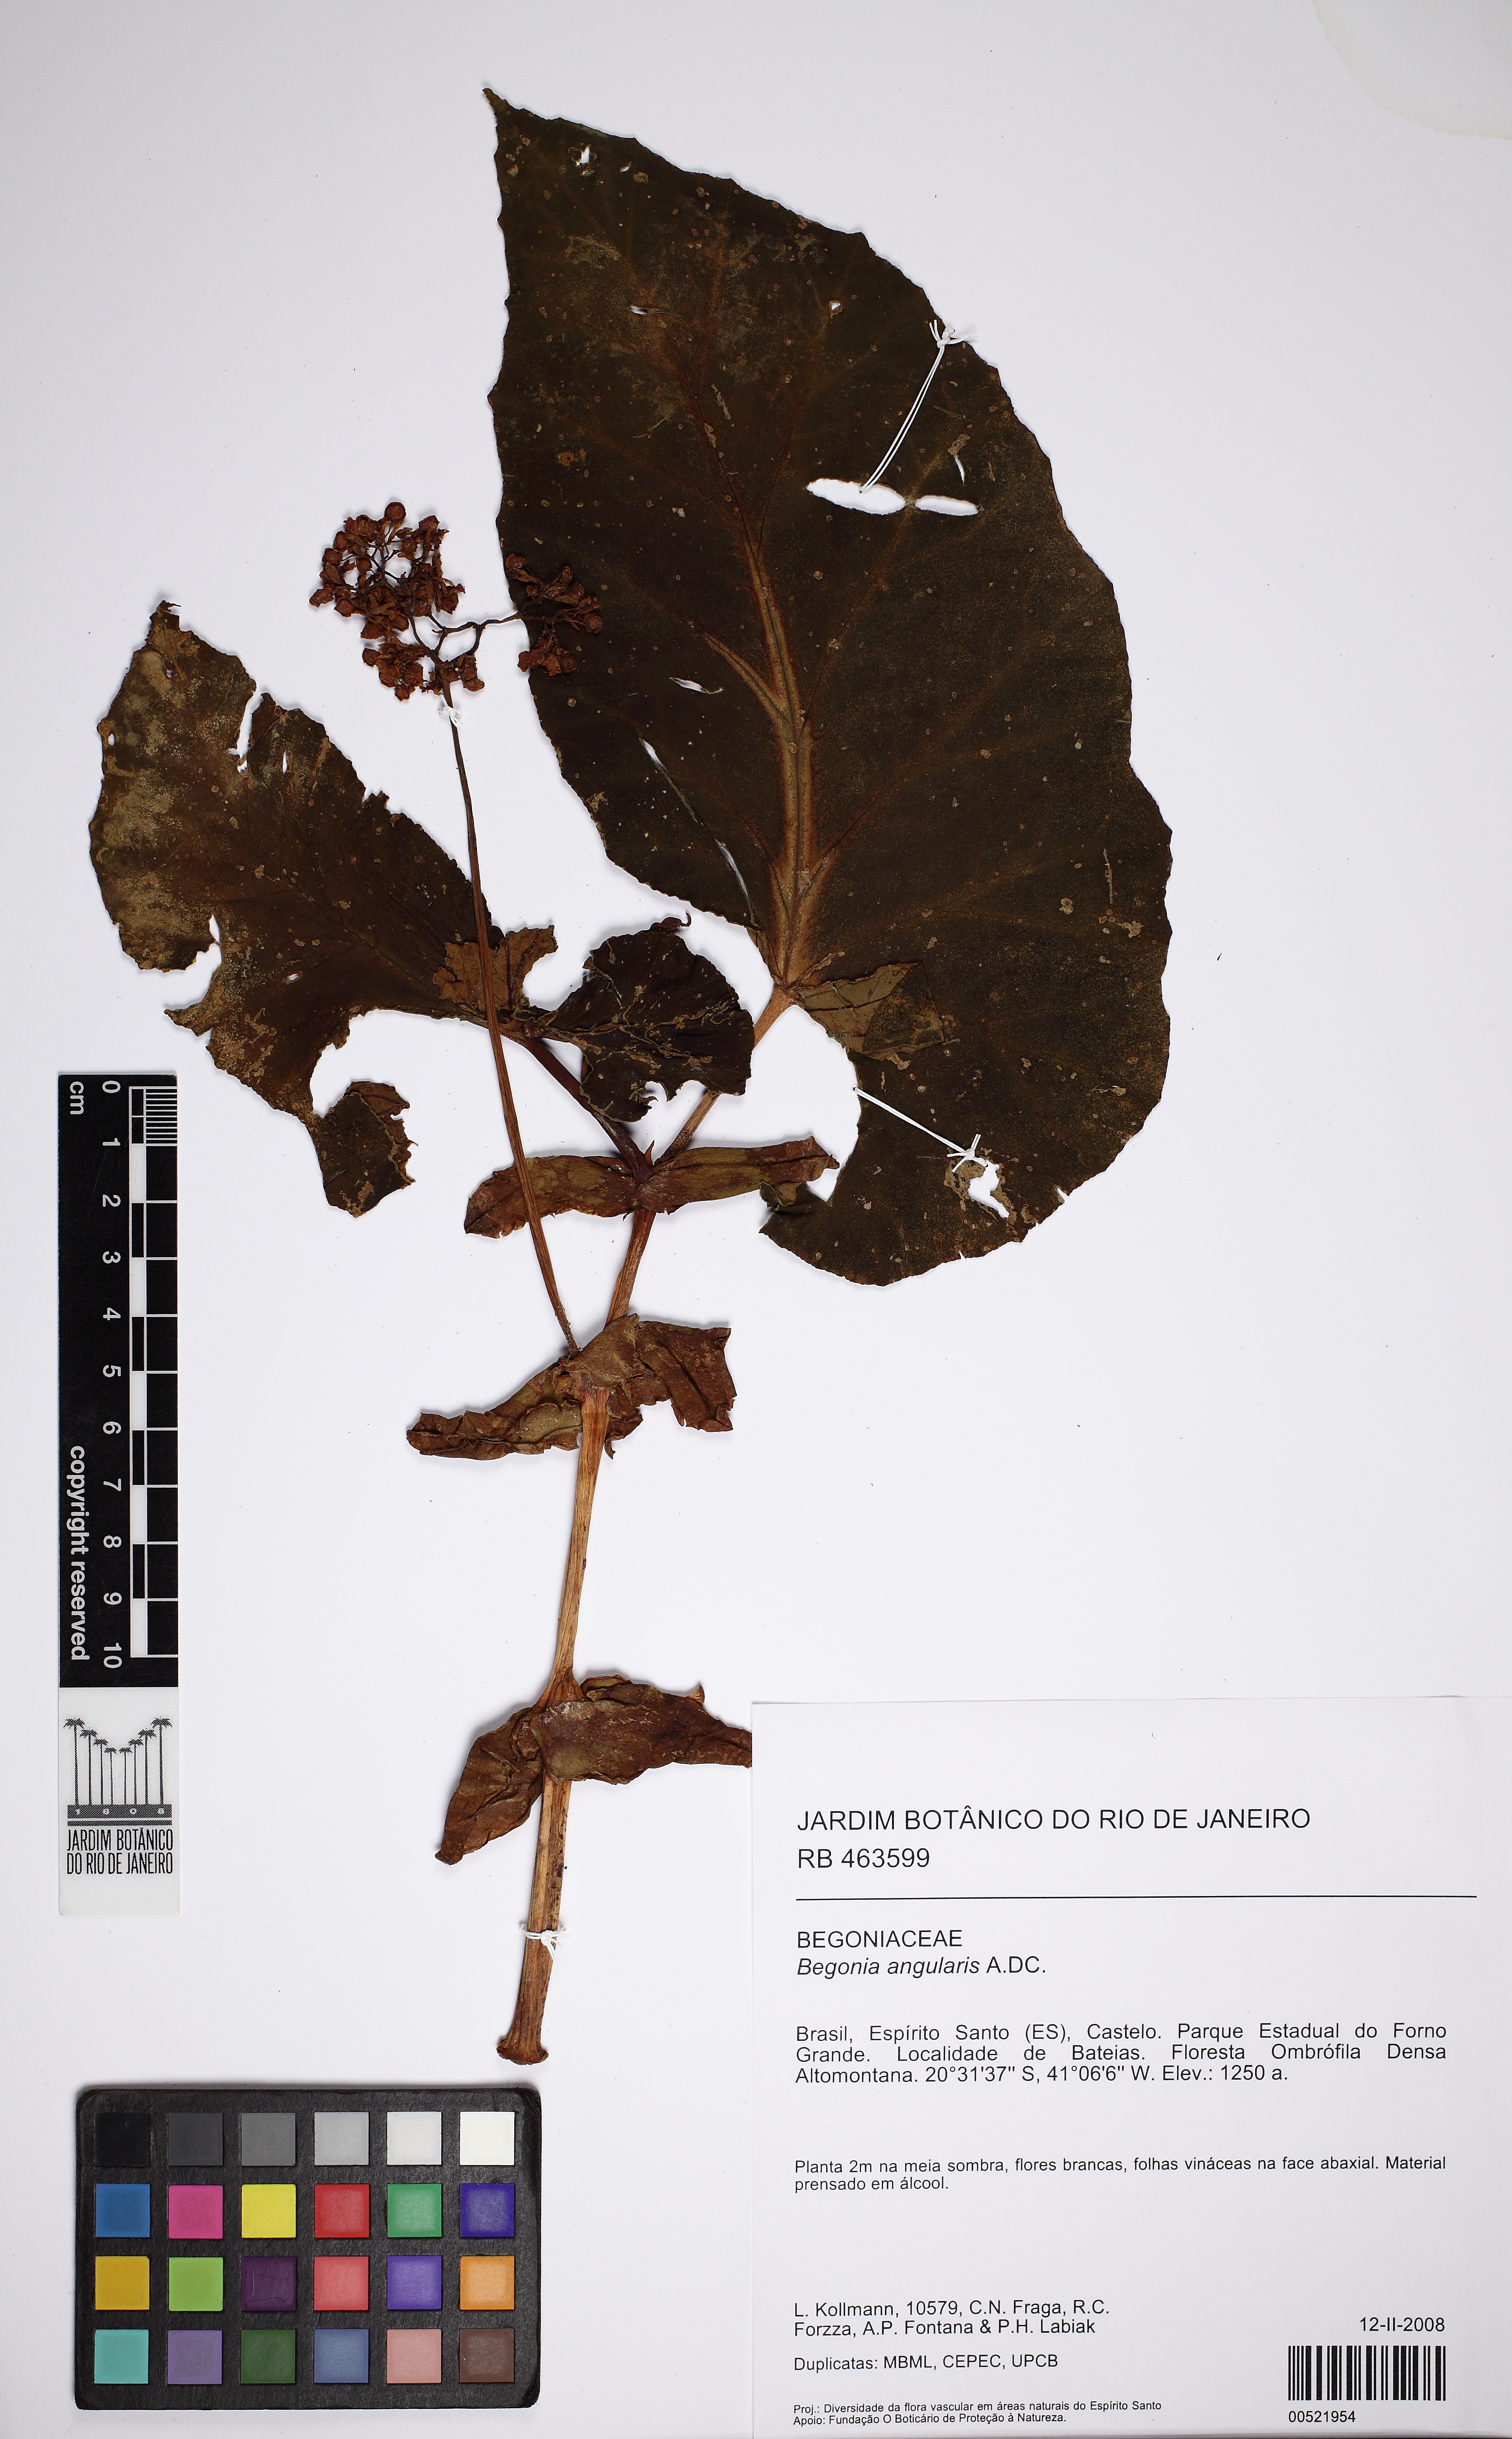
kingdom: Plantae
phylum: Tracheophyta
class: Magnoliopsida
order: Cucurbitales
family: Begoniaceae
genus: Begonia
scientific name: Begonia angularis
